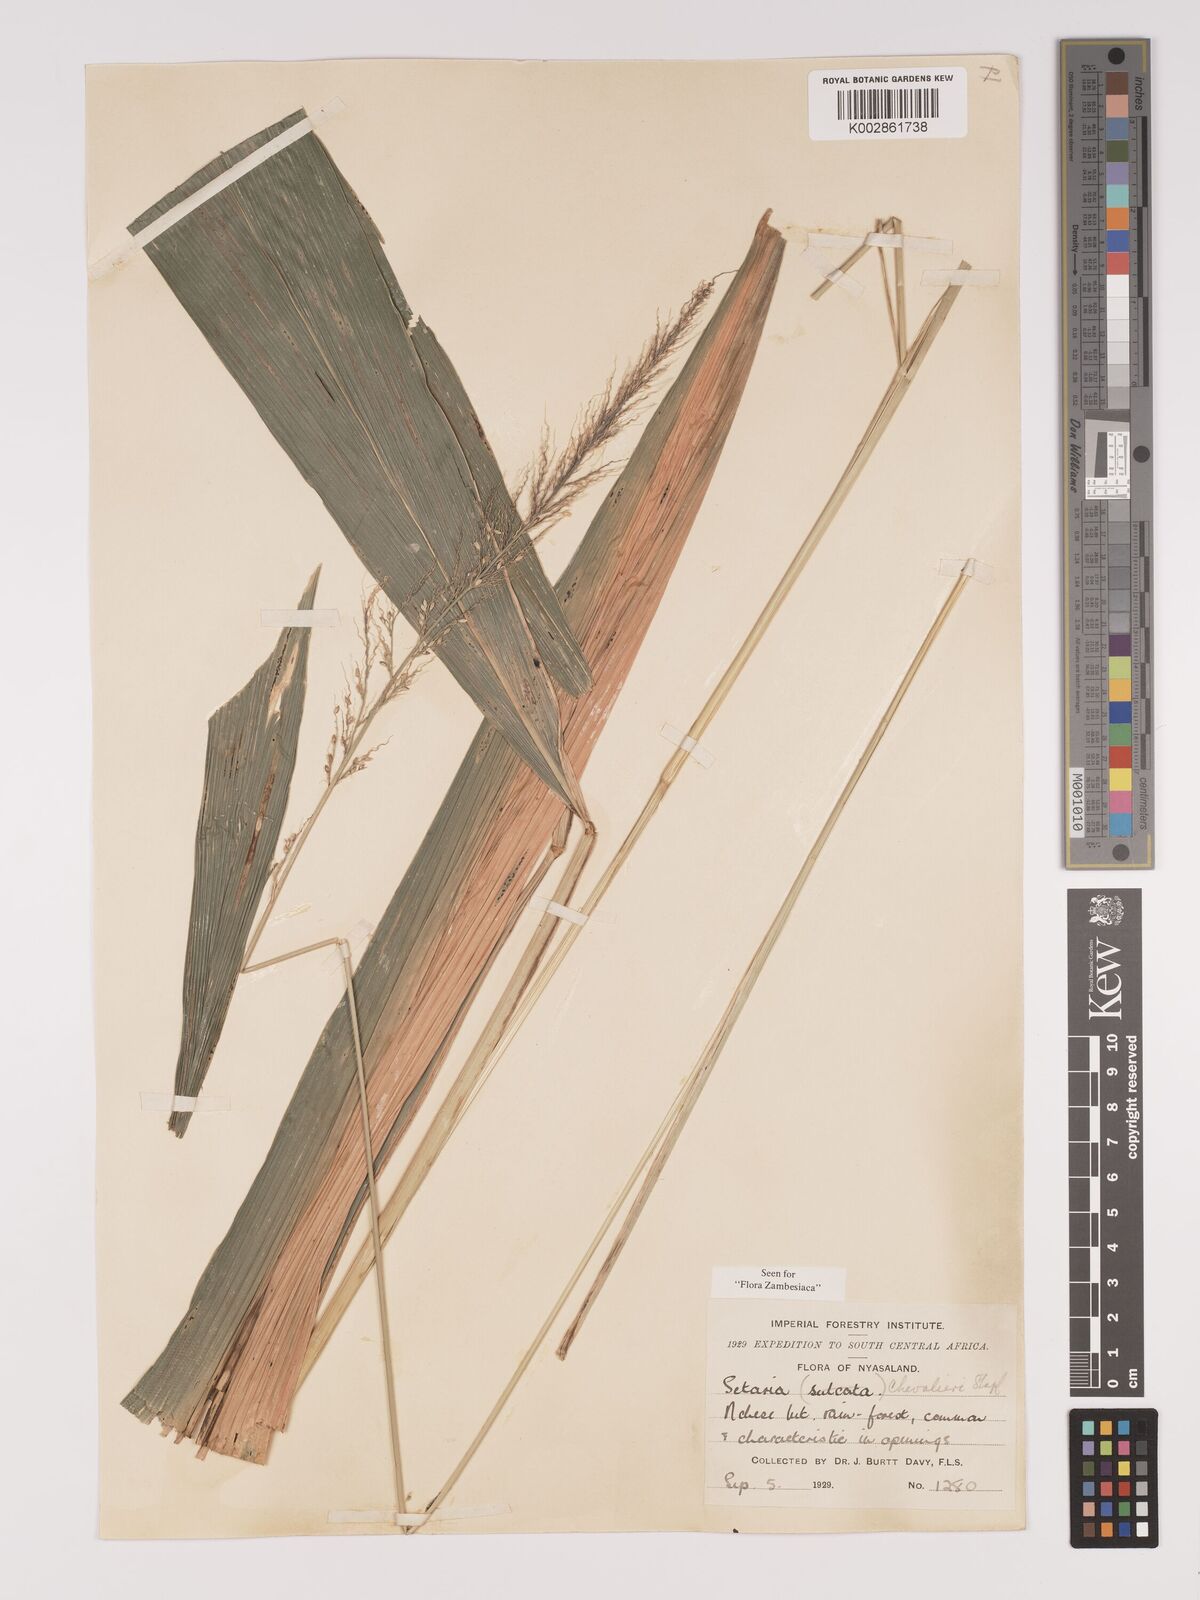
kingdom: Plantae
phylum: Tracheophyta
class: Liliopsida
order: Poales
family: Poaceae
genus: Setaria
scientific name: Setaria megaphylla
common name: Bigleaf bristlegrass
